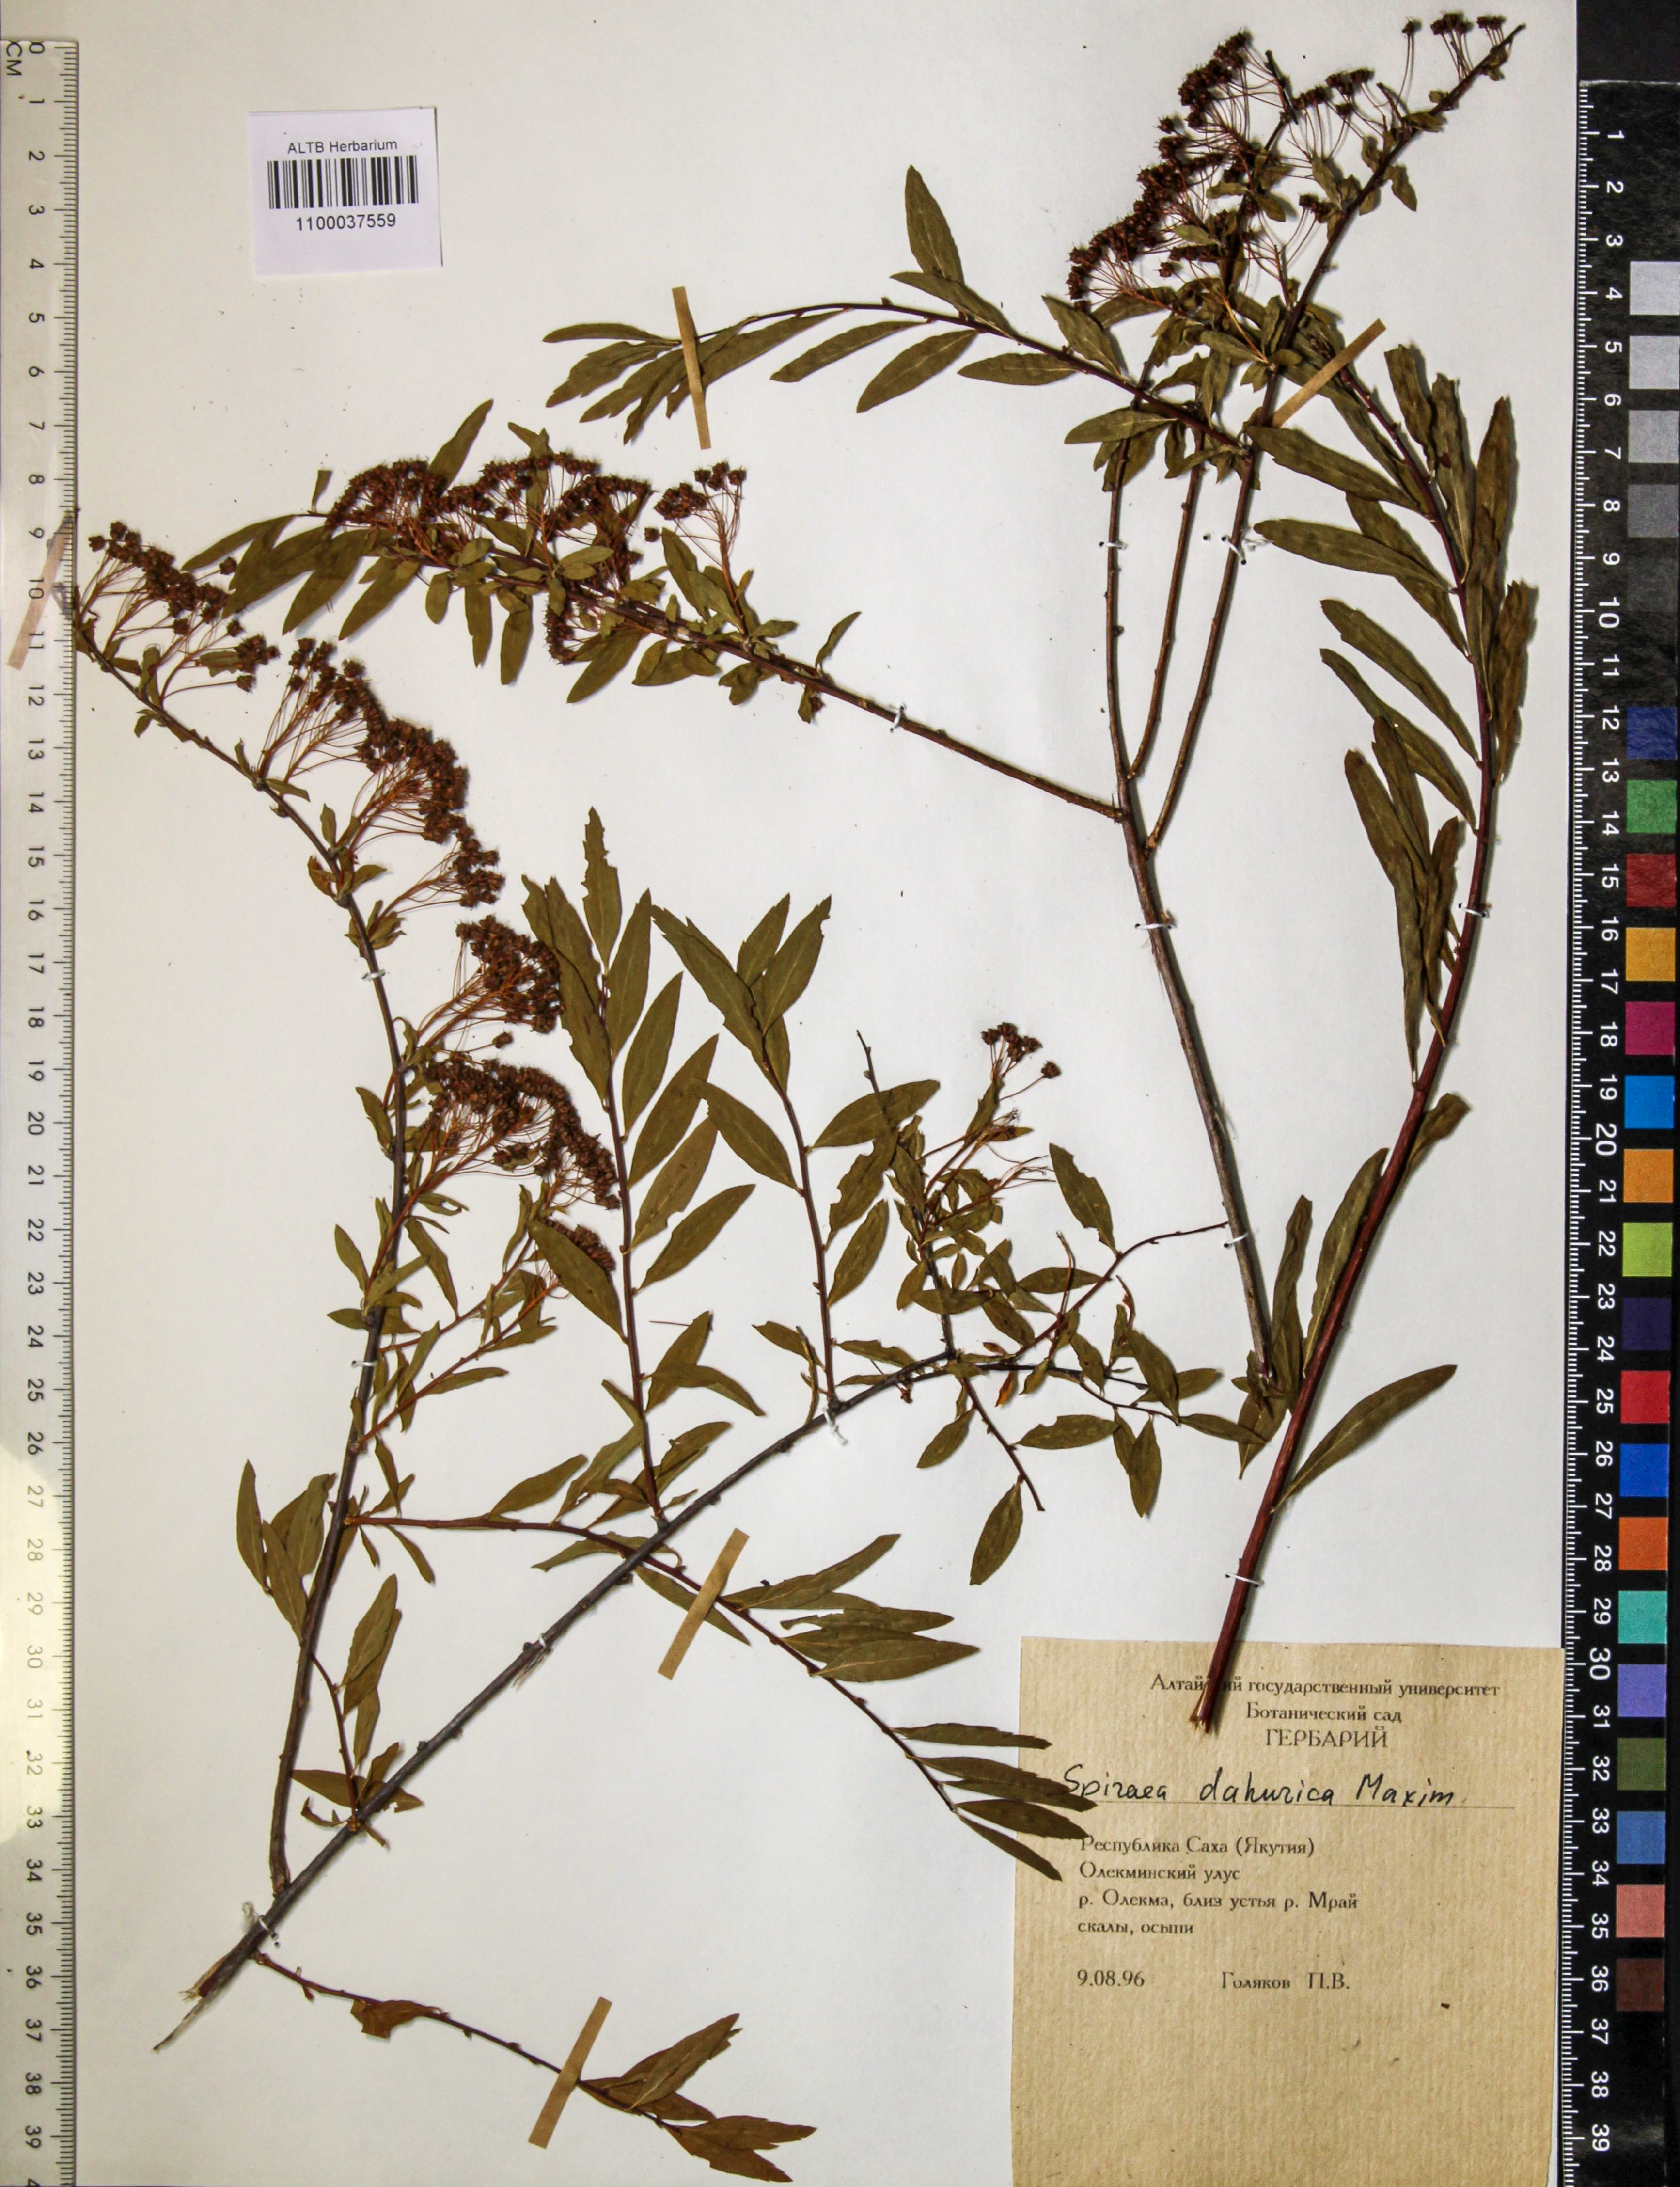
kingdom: Plantae
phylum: Tracheophyta
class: Magnoliopsida
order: Rosales
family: Rosaceae
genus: Spiraea
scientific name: Spiraea dahurica
